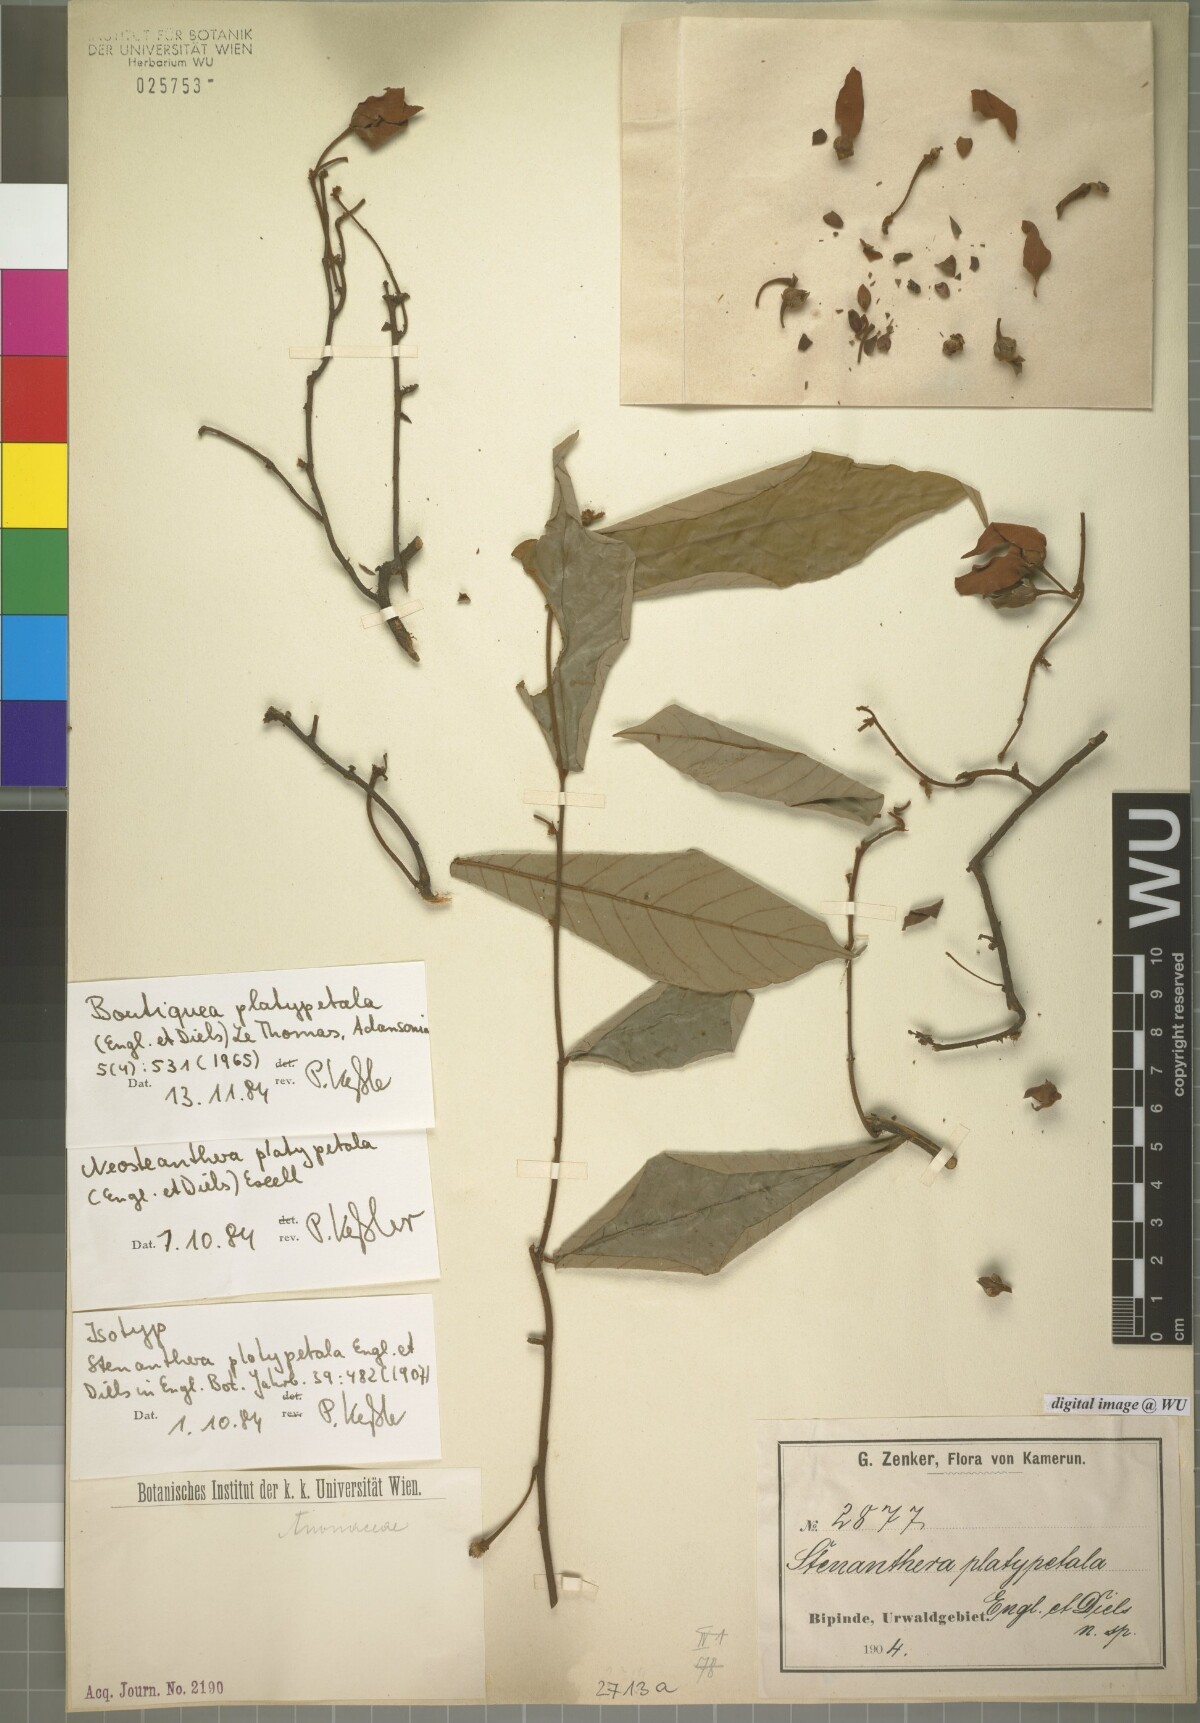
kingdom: Plantae
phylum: Tracheophyta
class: Magnoliopsida
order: Magnoliales
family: Annonaceae
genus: Boutiquea
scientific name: Boutiquea platypetala
